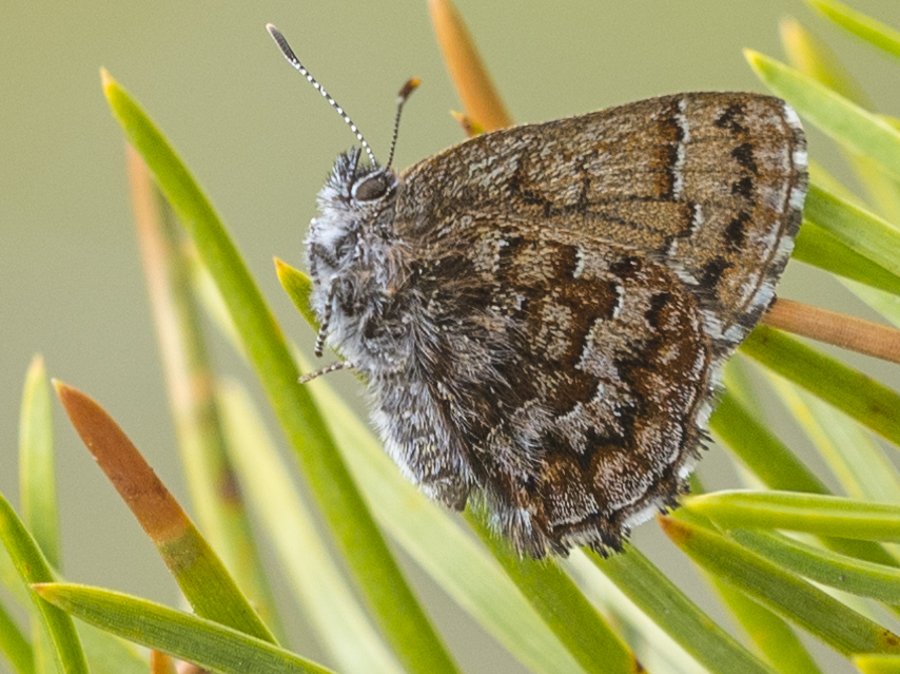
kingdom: Animalia
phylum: Arthropoda
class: Insecta
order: Lepidoptera
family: Lycaenidae
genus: Incisalia
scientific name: Incisalia niphon
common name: Eastern Pine Elfin
